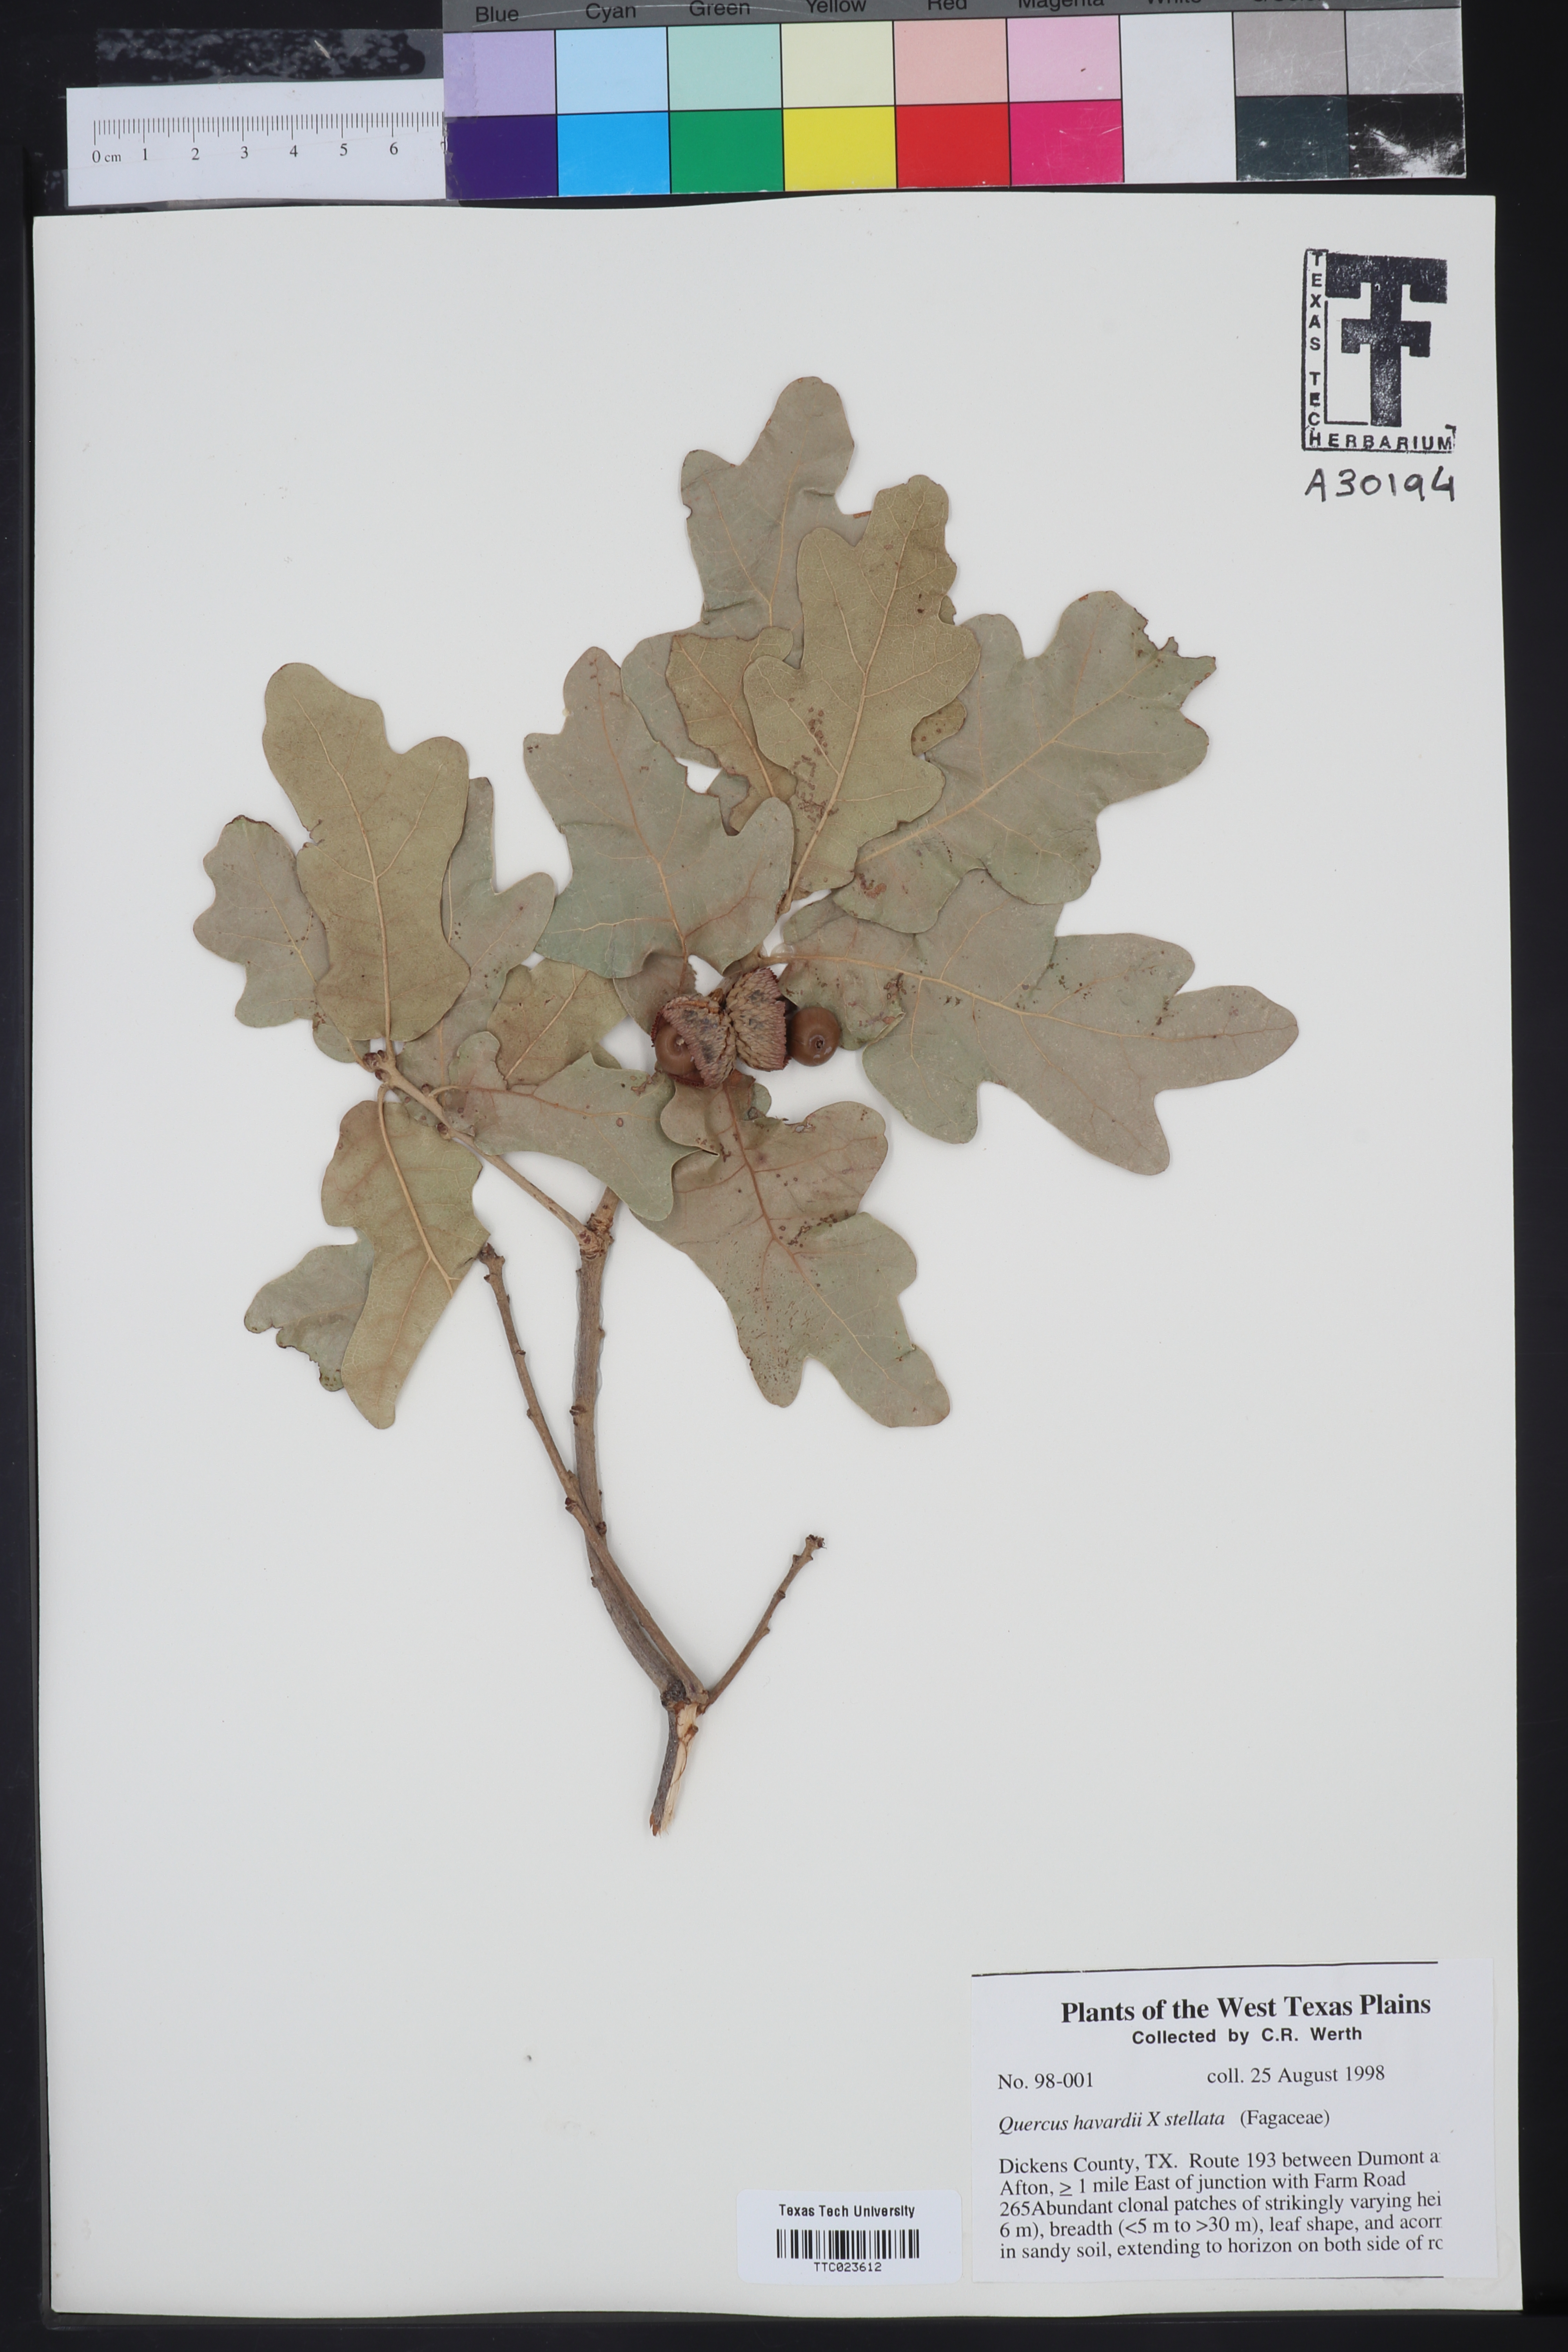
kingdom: Plantae
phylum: Tracheophyta
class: Magnoliopsida
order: Fagales
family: Fagaceae
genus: Quercus
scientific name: Quercus havardii
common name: Shinnery oak
